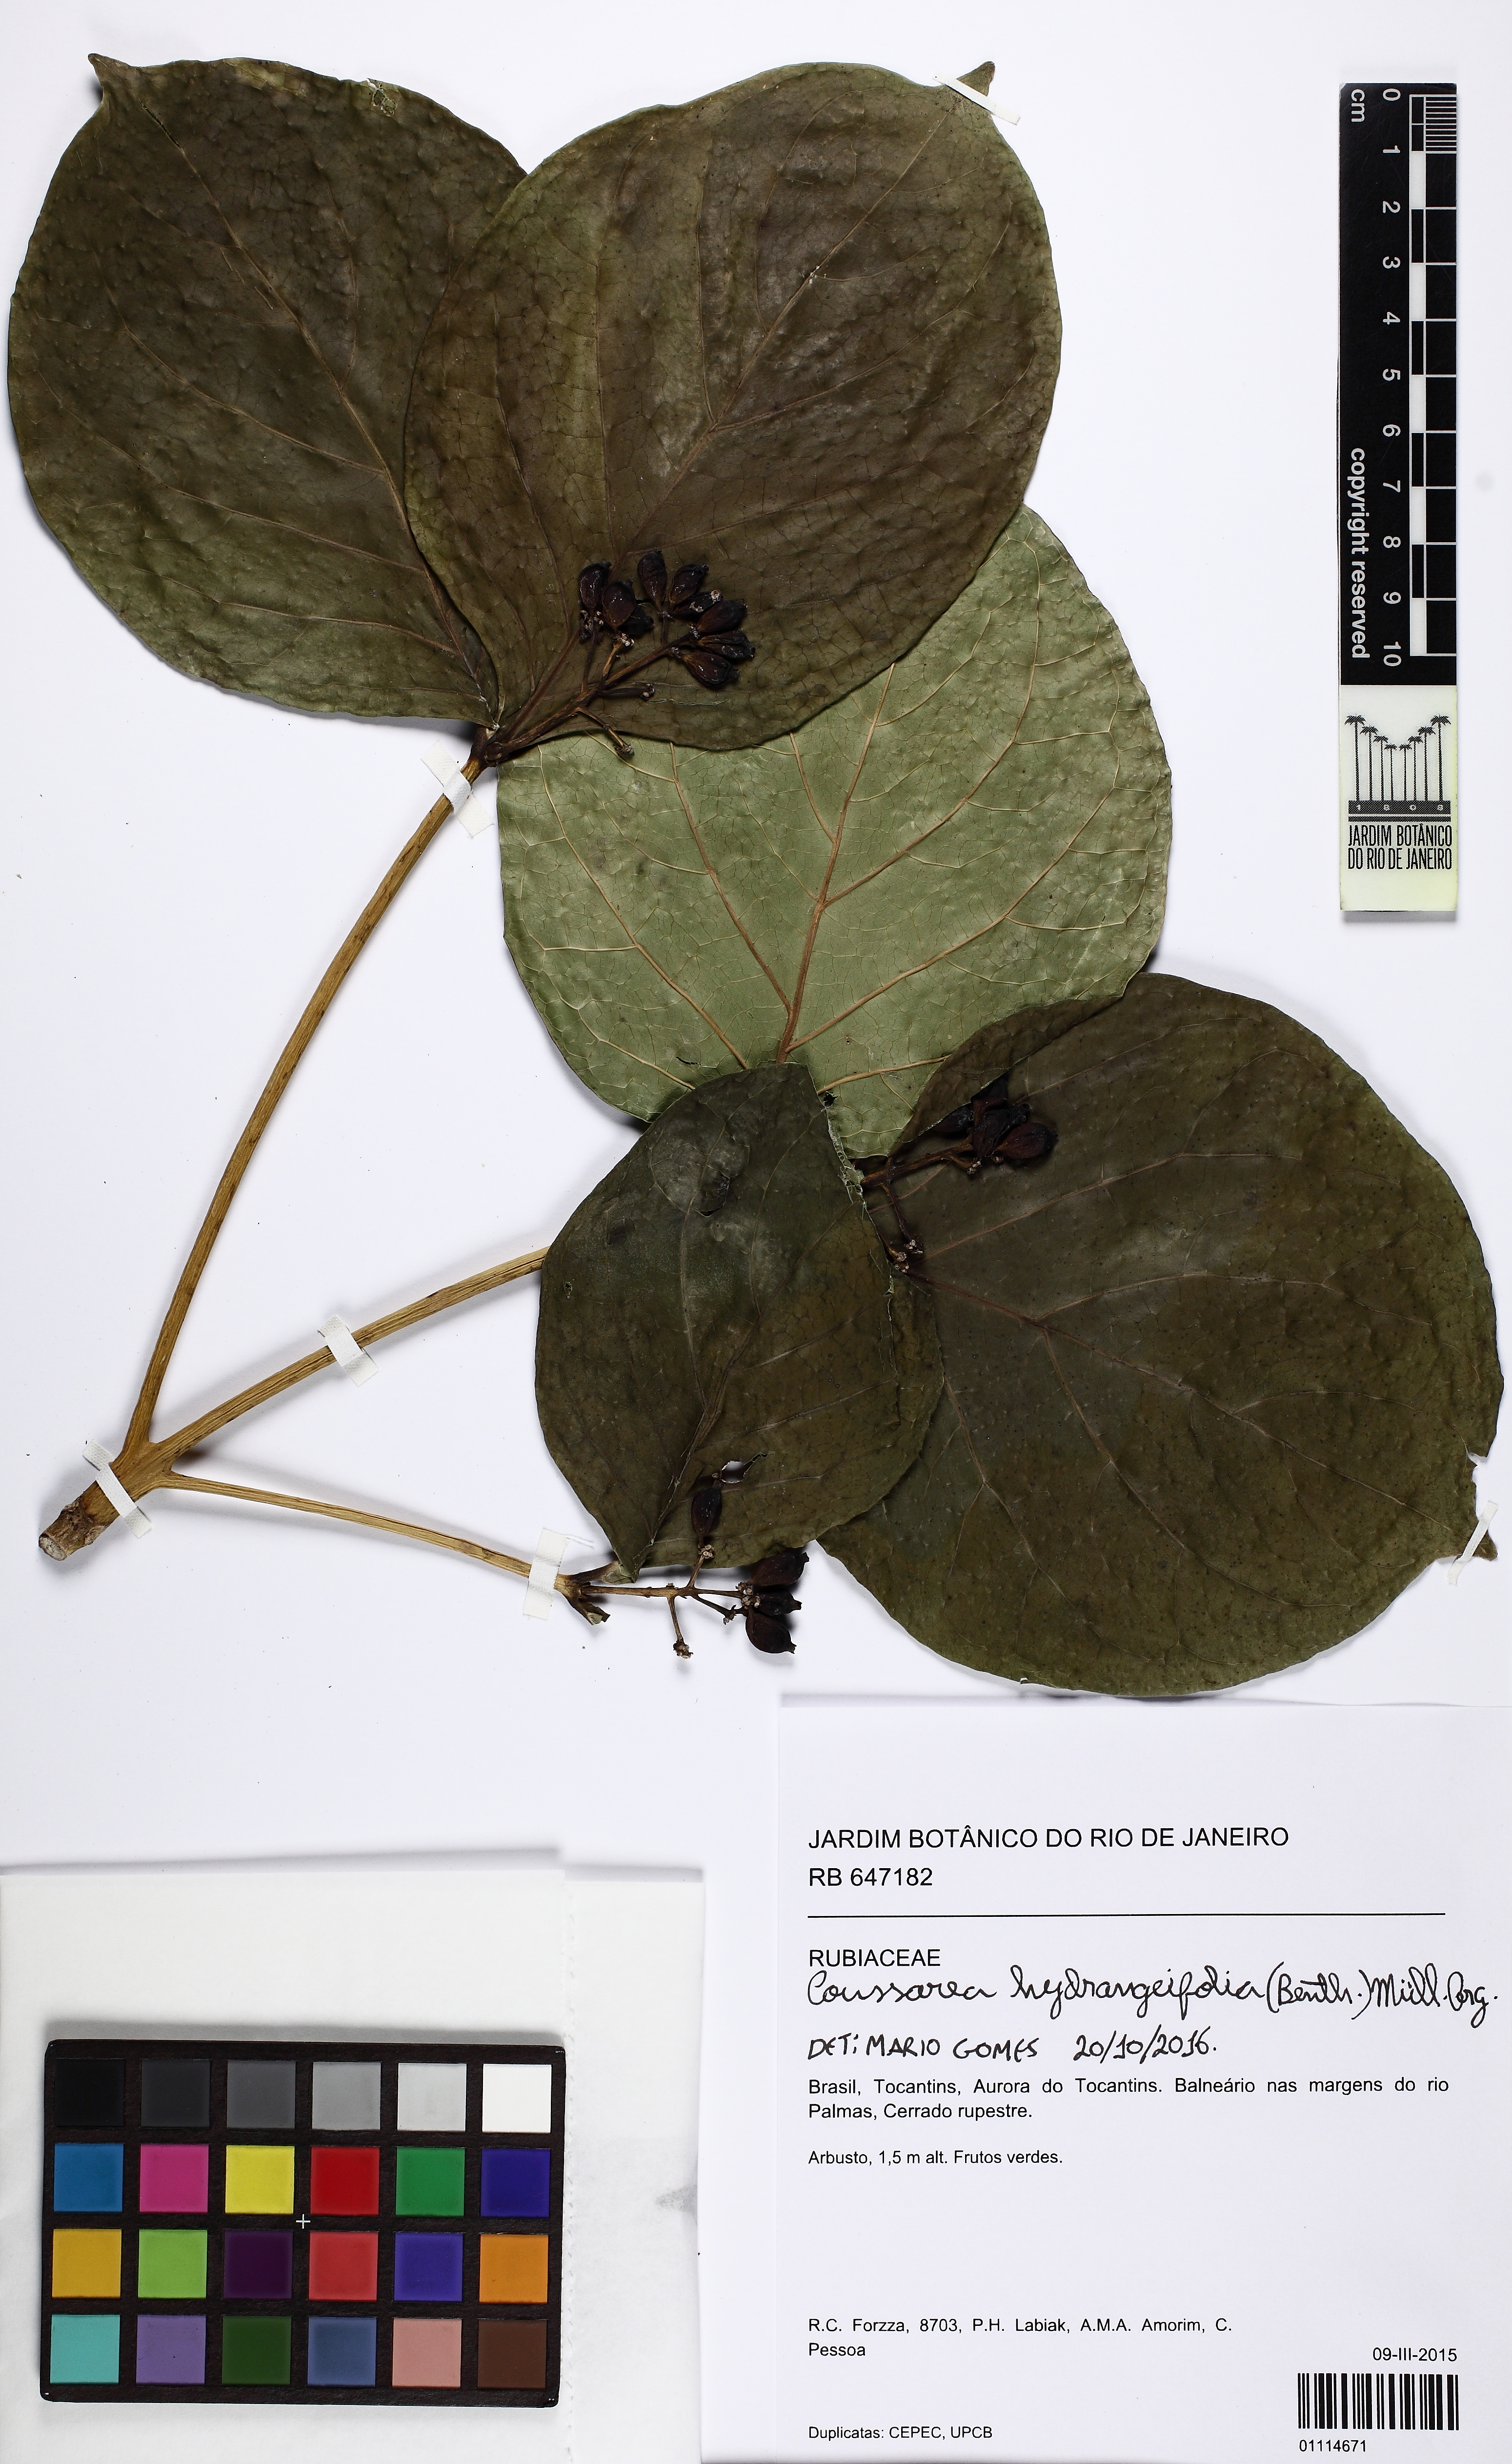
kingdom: Plantae
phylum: Tracheophyta
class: Magnoliopsida
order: Gentianales
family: Rubiaceae
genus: Coussarea
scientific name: Coussarea hydrangeifolia
